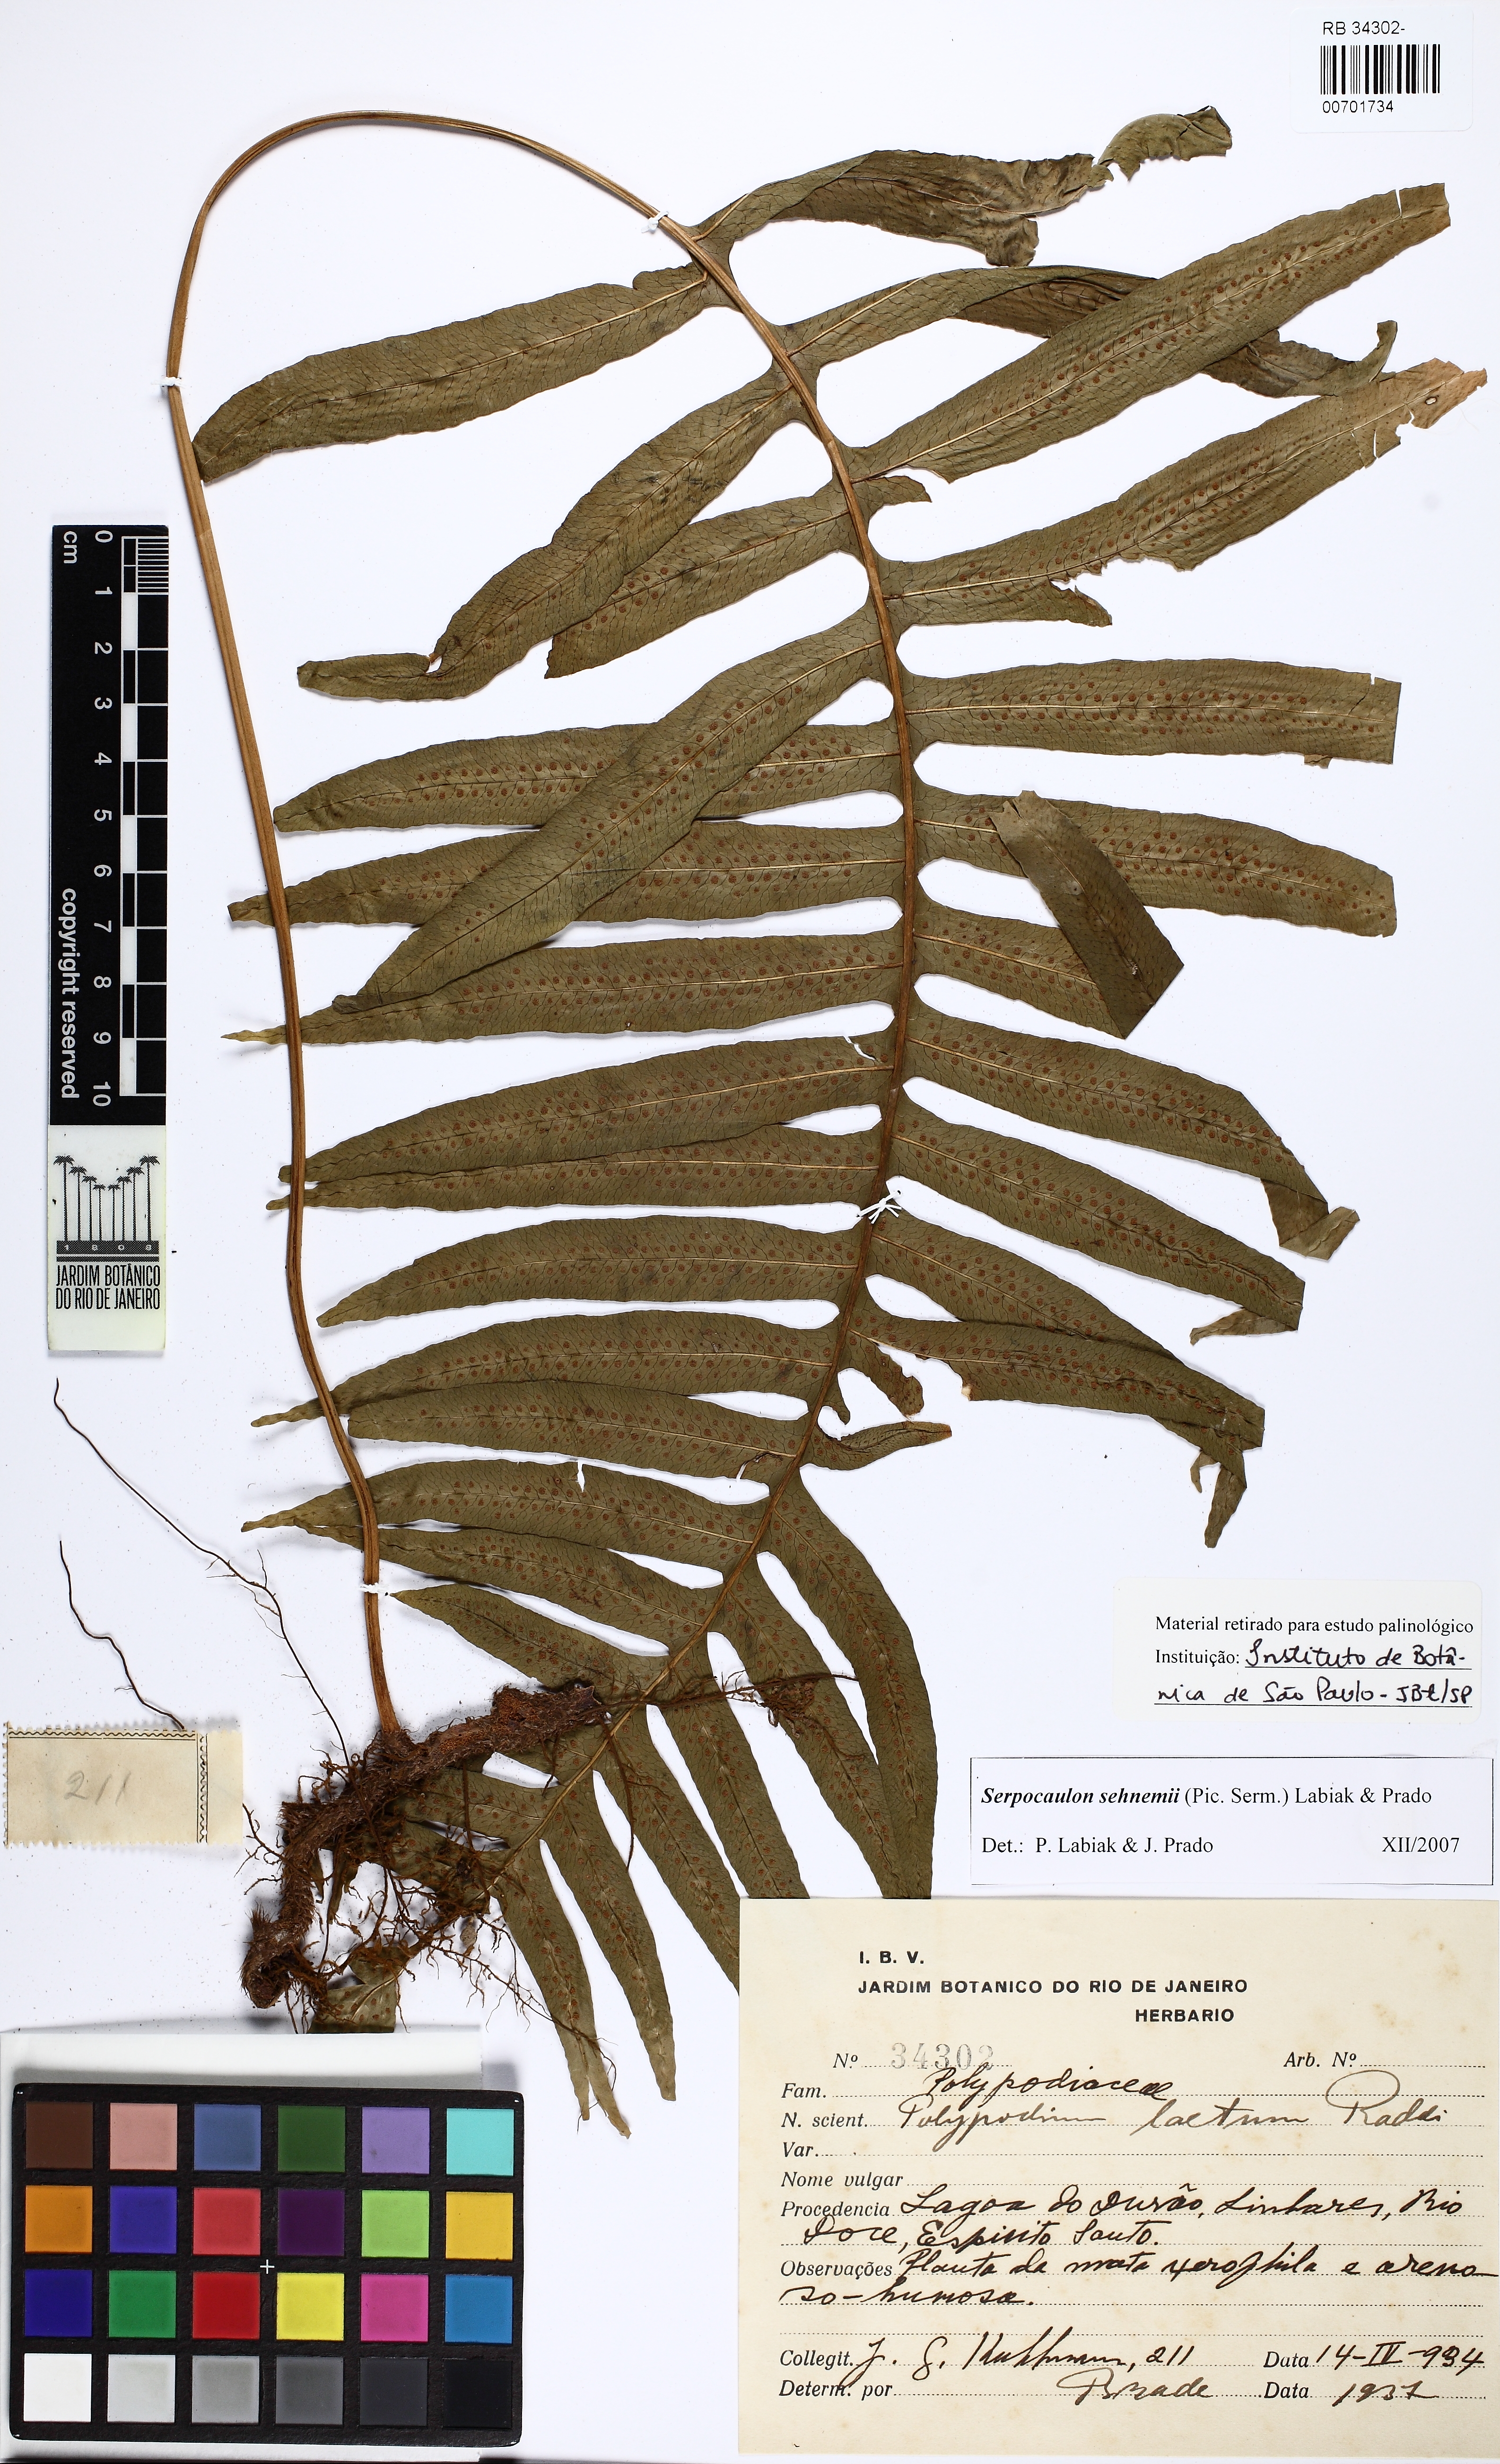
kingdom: Plantae
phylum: Tracheophyta
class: Polypodiopsida
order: Polypodiales
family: Polypodiaceae
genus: Serpocaulon
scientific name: Serpocaulon laetum
